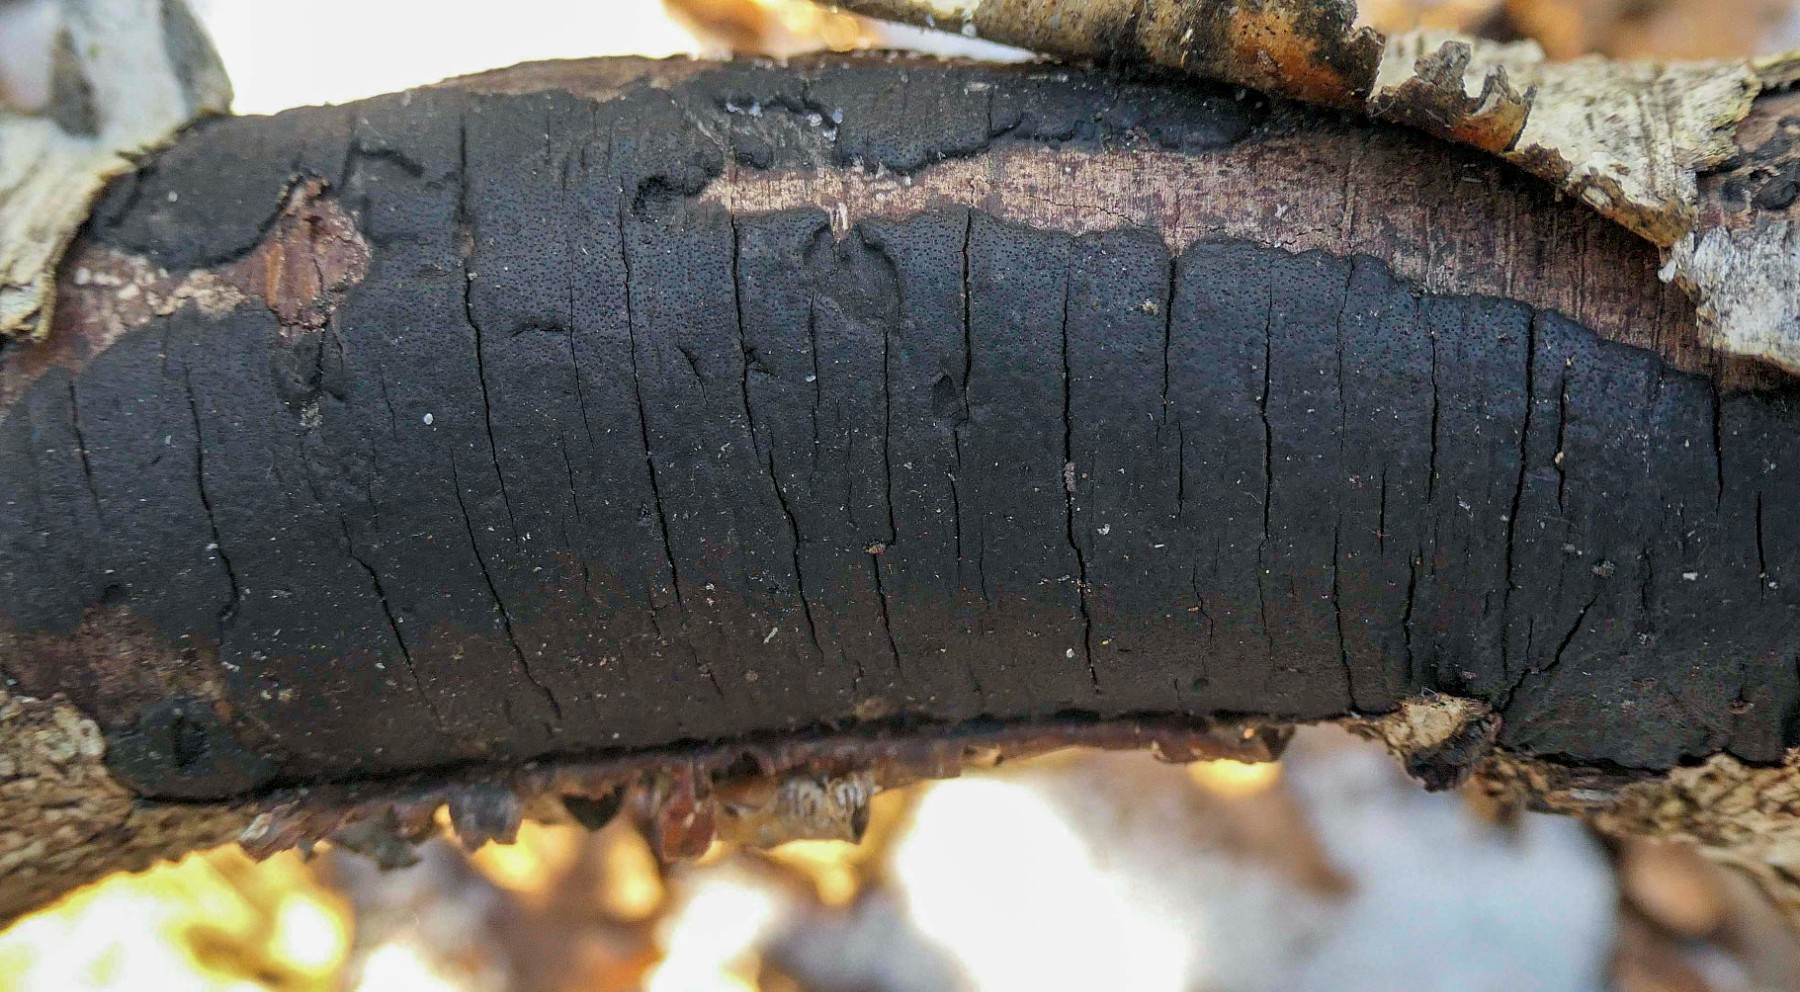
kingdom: Fungi
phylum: Ascomycota
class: Sordariomycetes
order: Xylariales
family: Diatrypaceae
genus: Diatrype
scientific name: Diatrype
